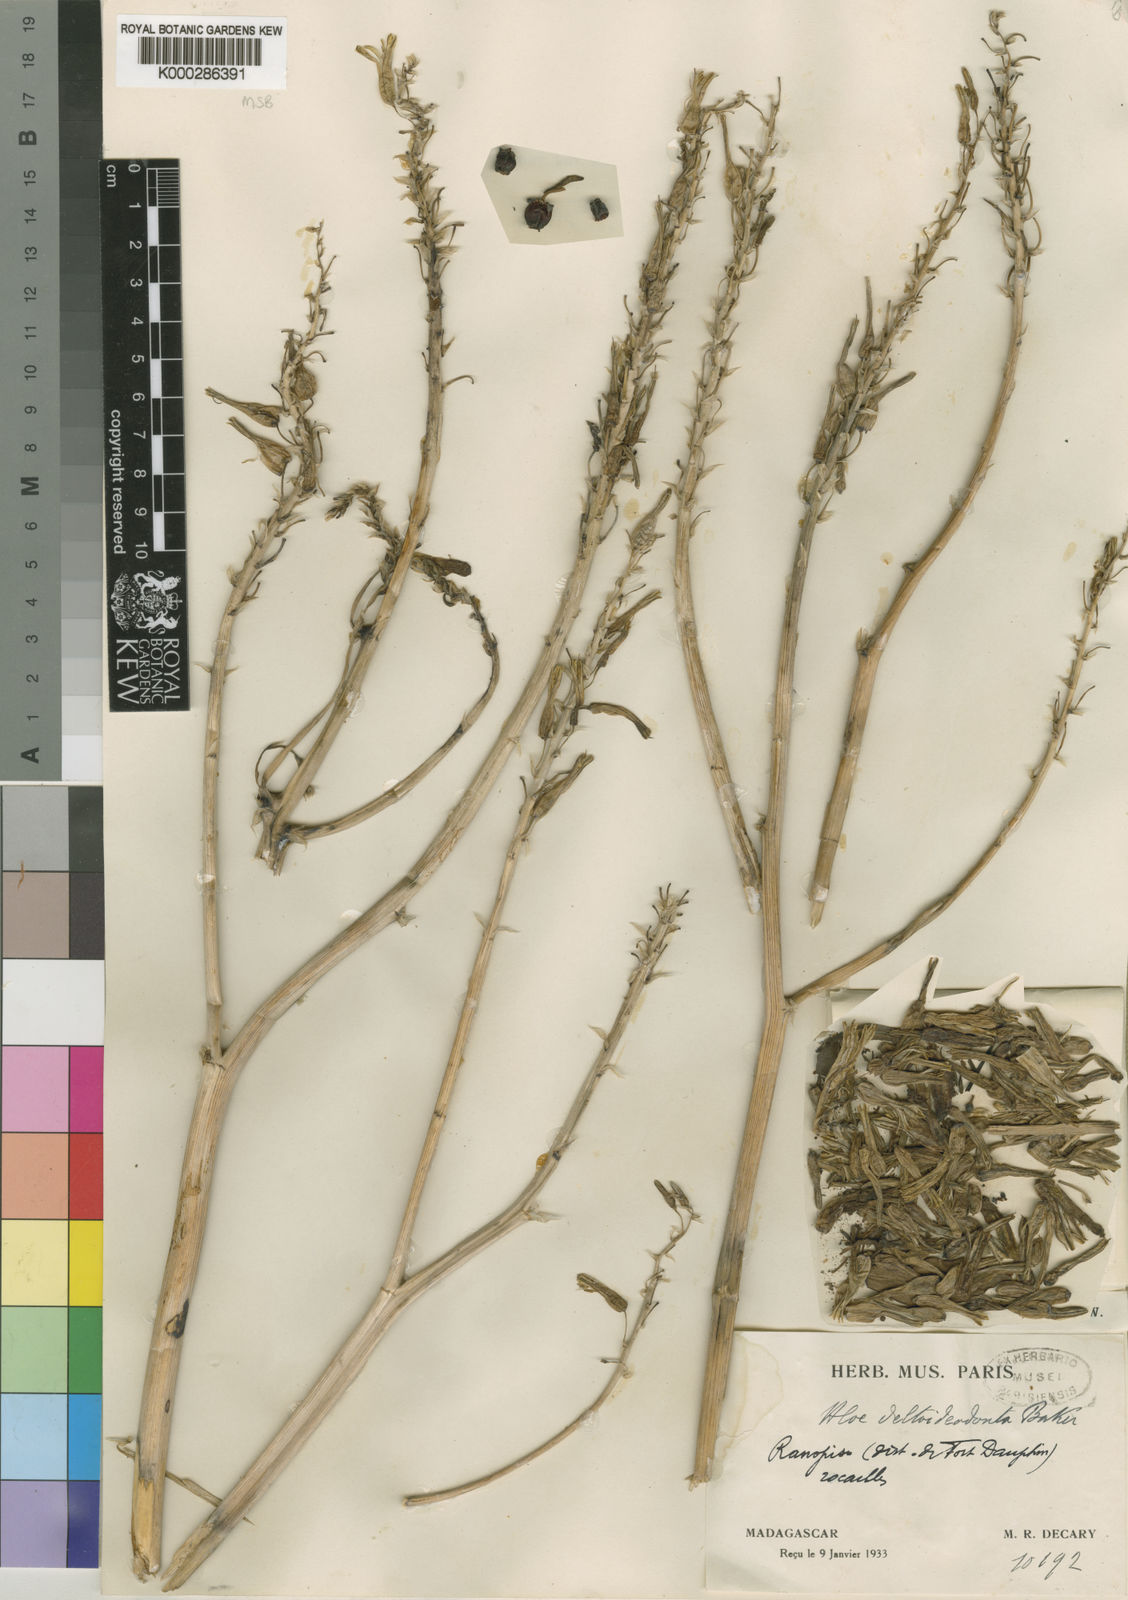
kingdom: Plantae
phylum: Tracheophyta
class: Liliopsida
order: Asparagales
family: Asphodelaceae
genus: Aloe
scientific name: Aloe deltoideodonta
